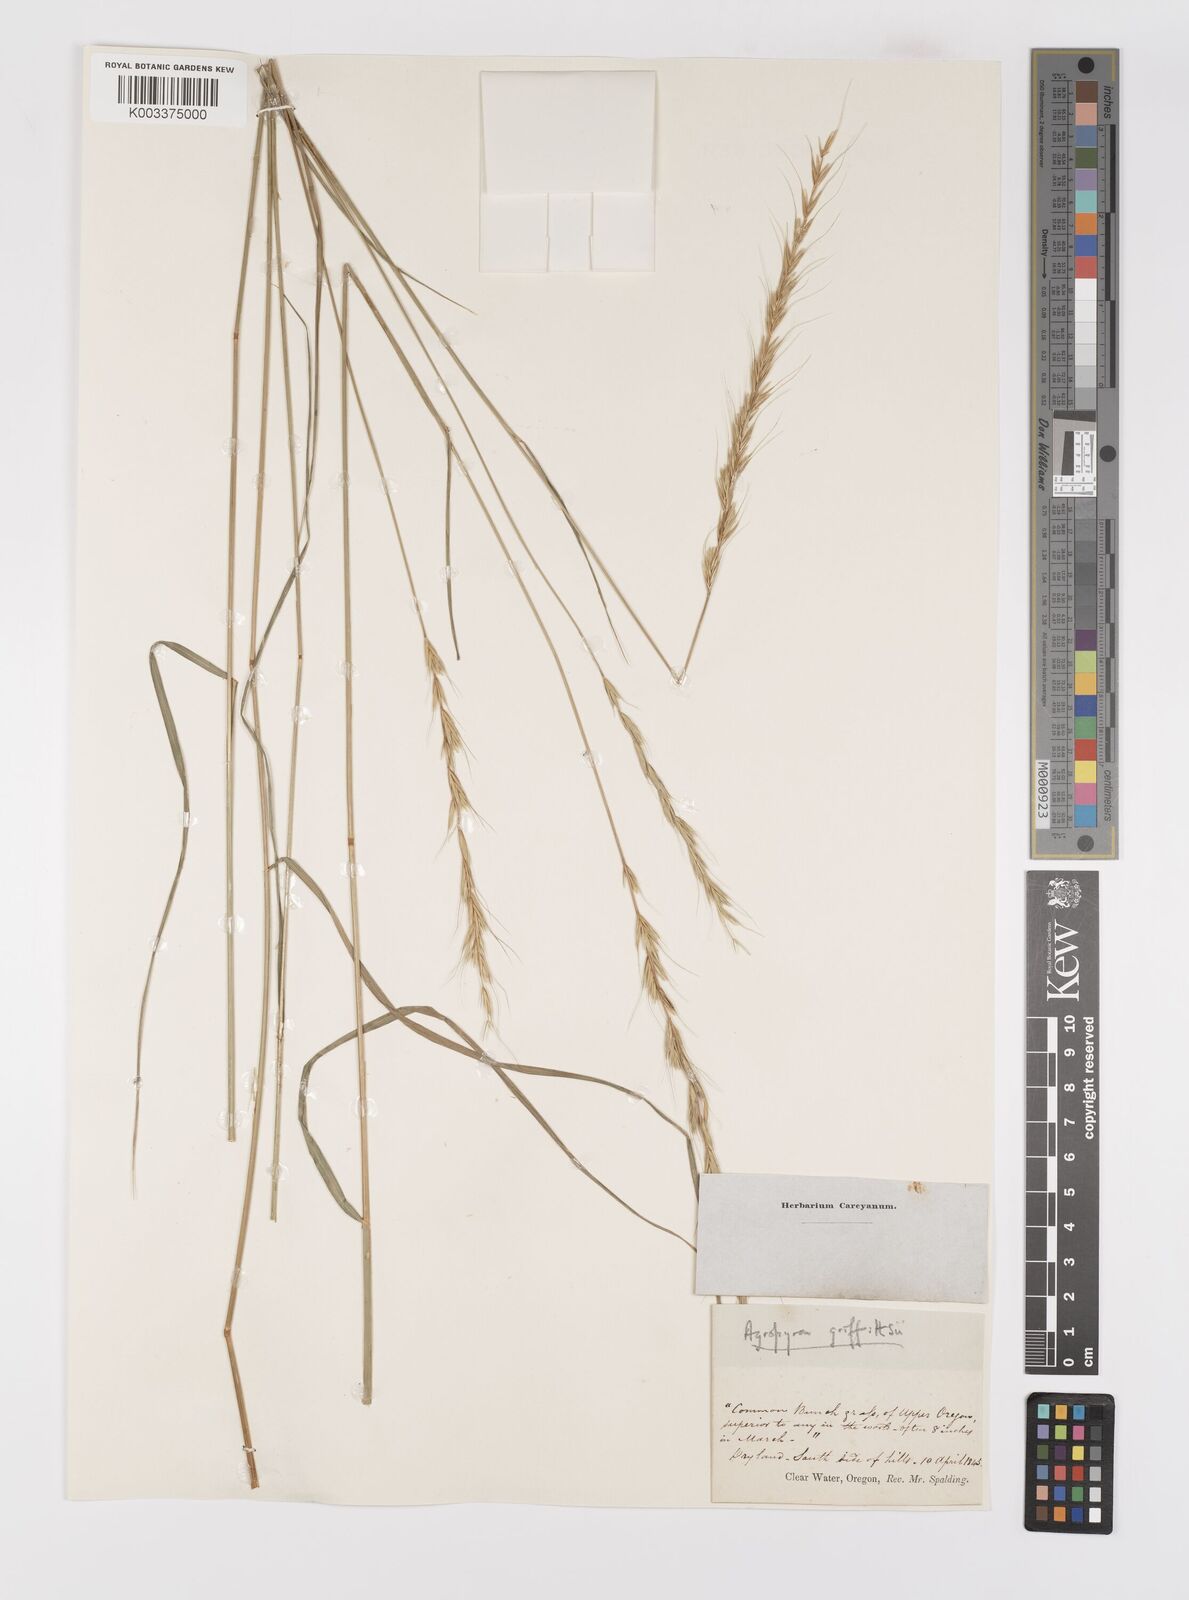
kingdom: Plantae
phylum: Tracheophyta
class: Liliopsida
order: Poales
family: Poaceae
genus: Elymus
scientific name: Elymus albicans
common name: Montana wheatgrass
